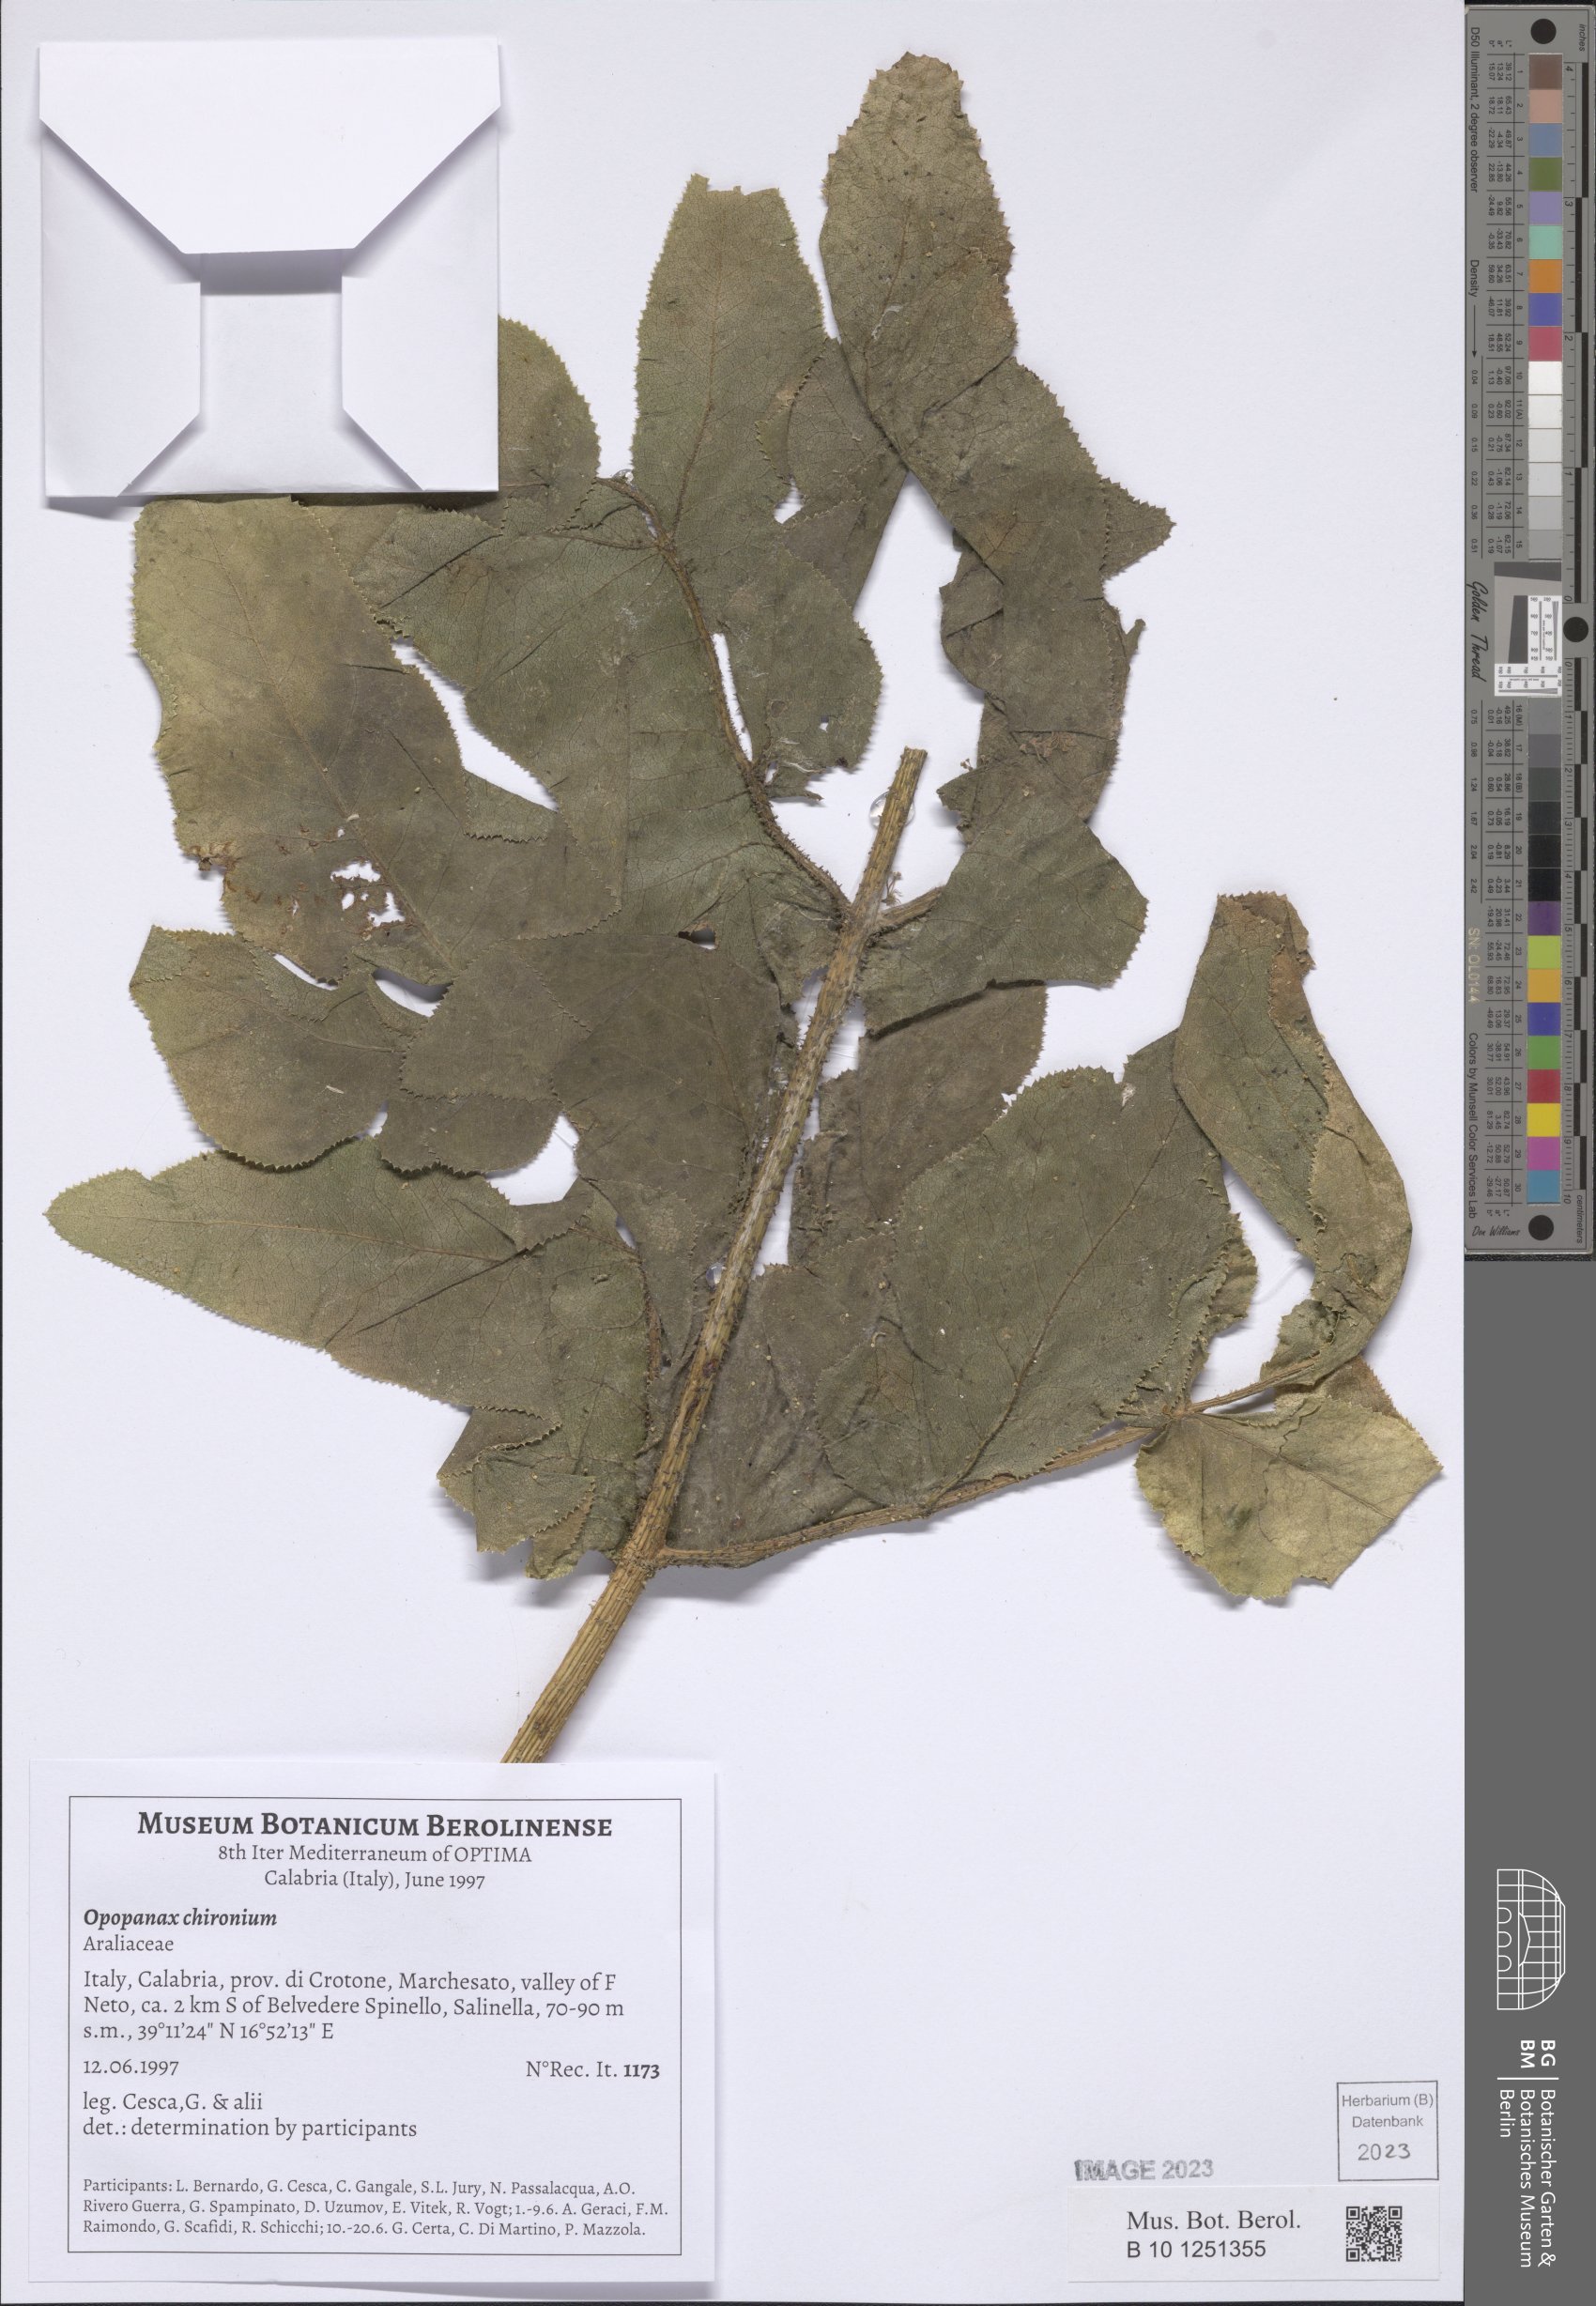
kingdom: Plantae
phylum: Tracheophyta
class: Magnoliopsida
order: Apiales
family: Apiaceae
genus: Opopanax
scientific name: Opopanax chironium
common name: Hercules-all-heal
